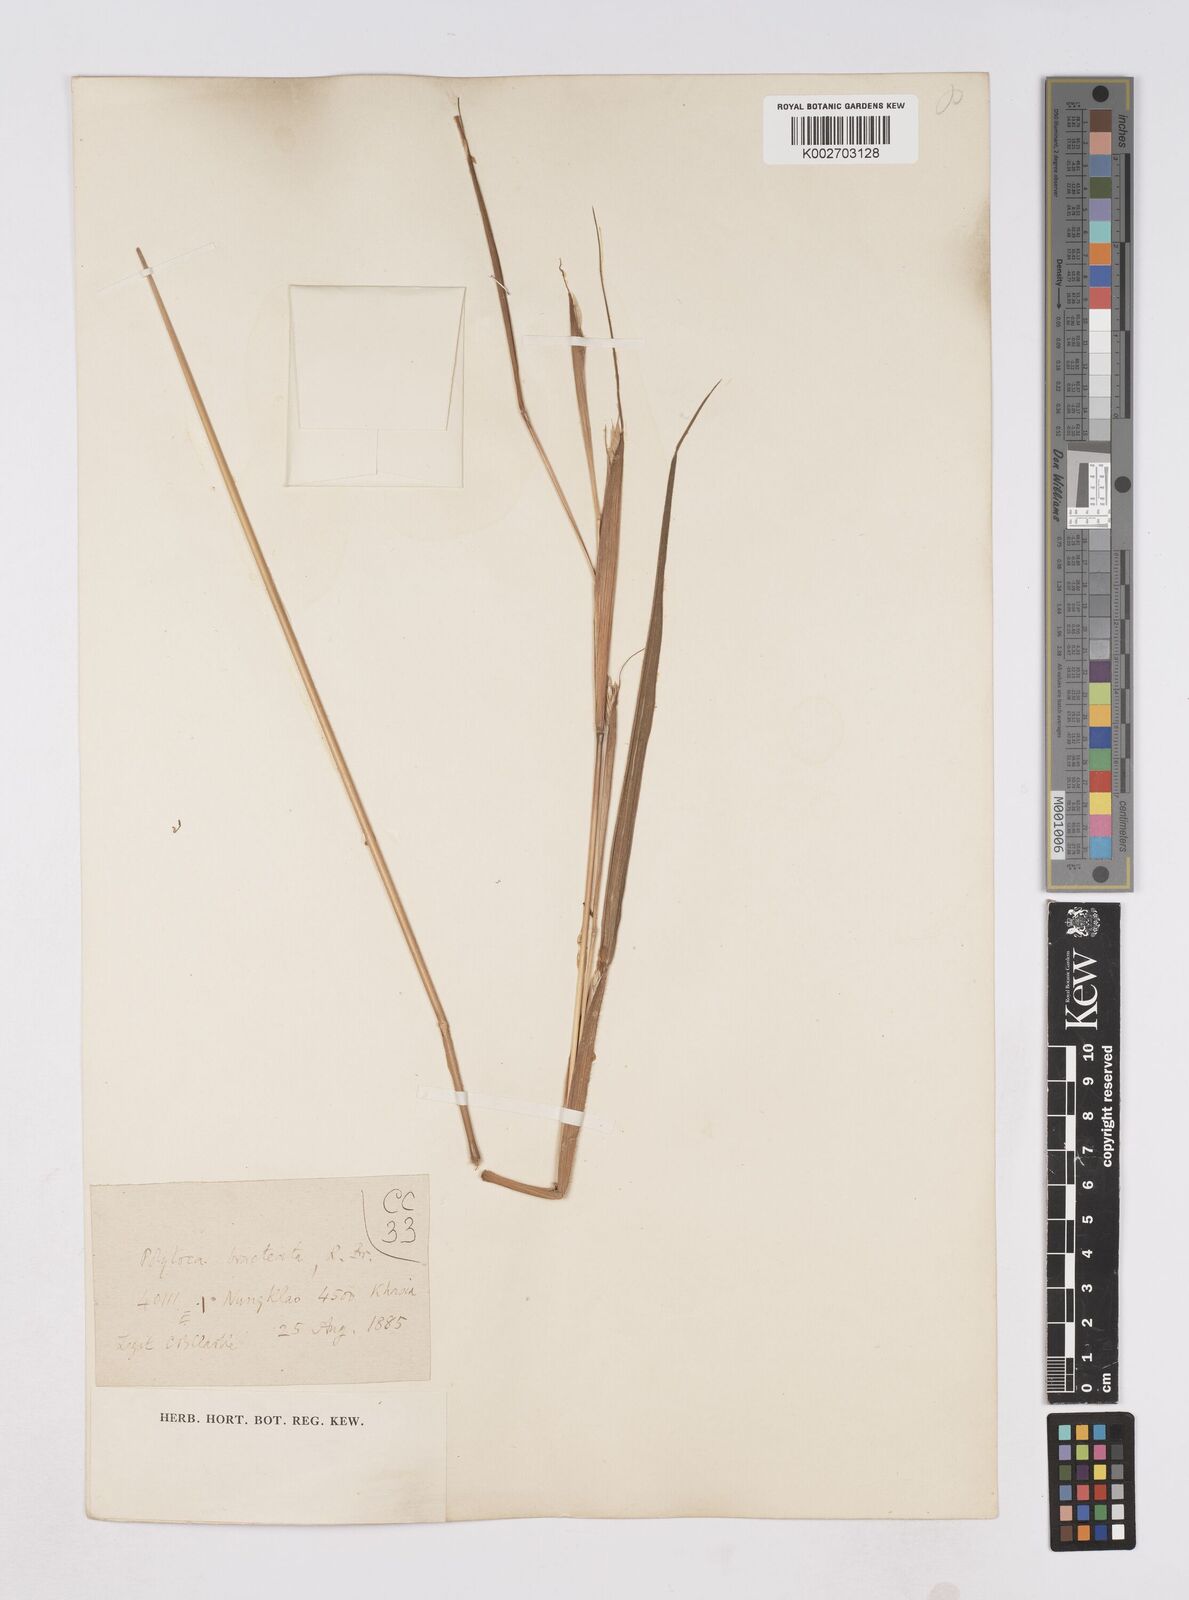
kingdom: Plantae
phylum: Tracheophyta
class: Liliopsida
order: Poales
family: Poaceae
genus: Polytoca
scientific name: Polytoca digitata
